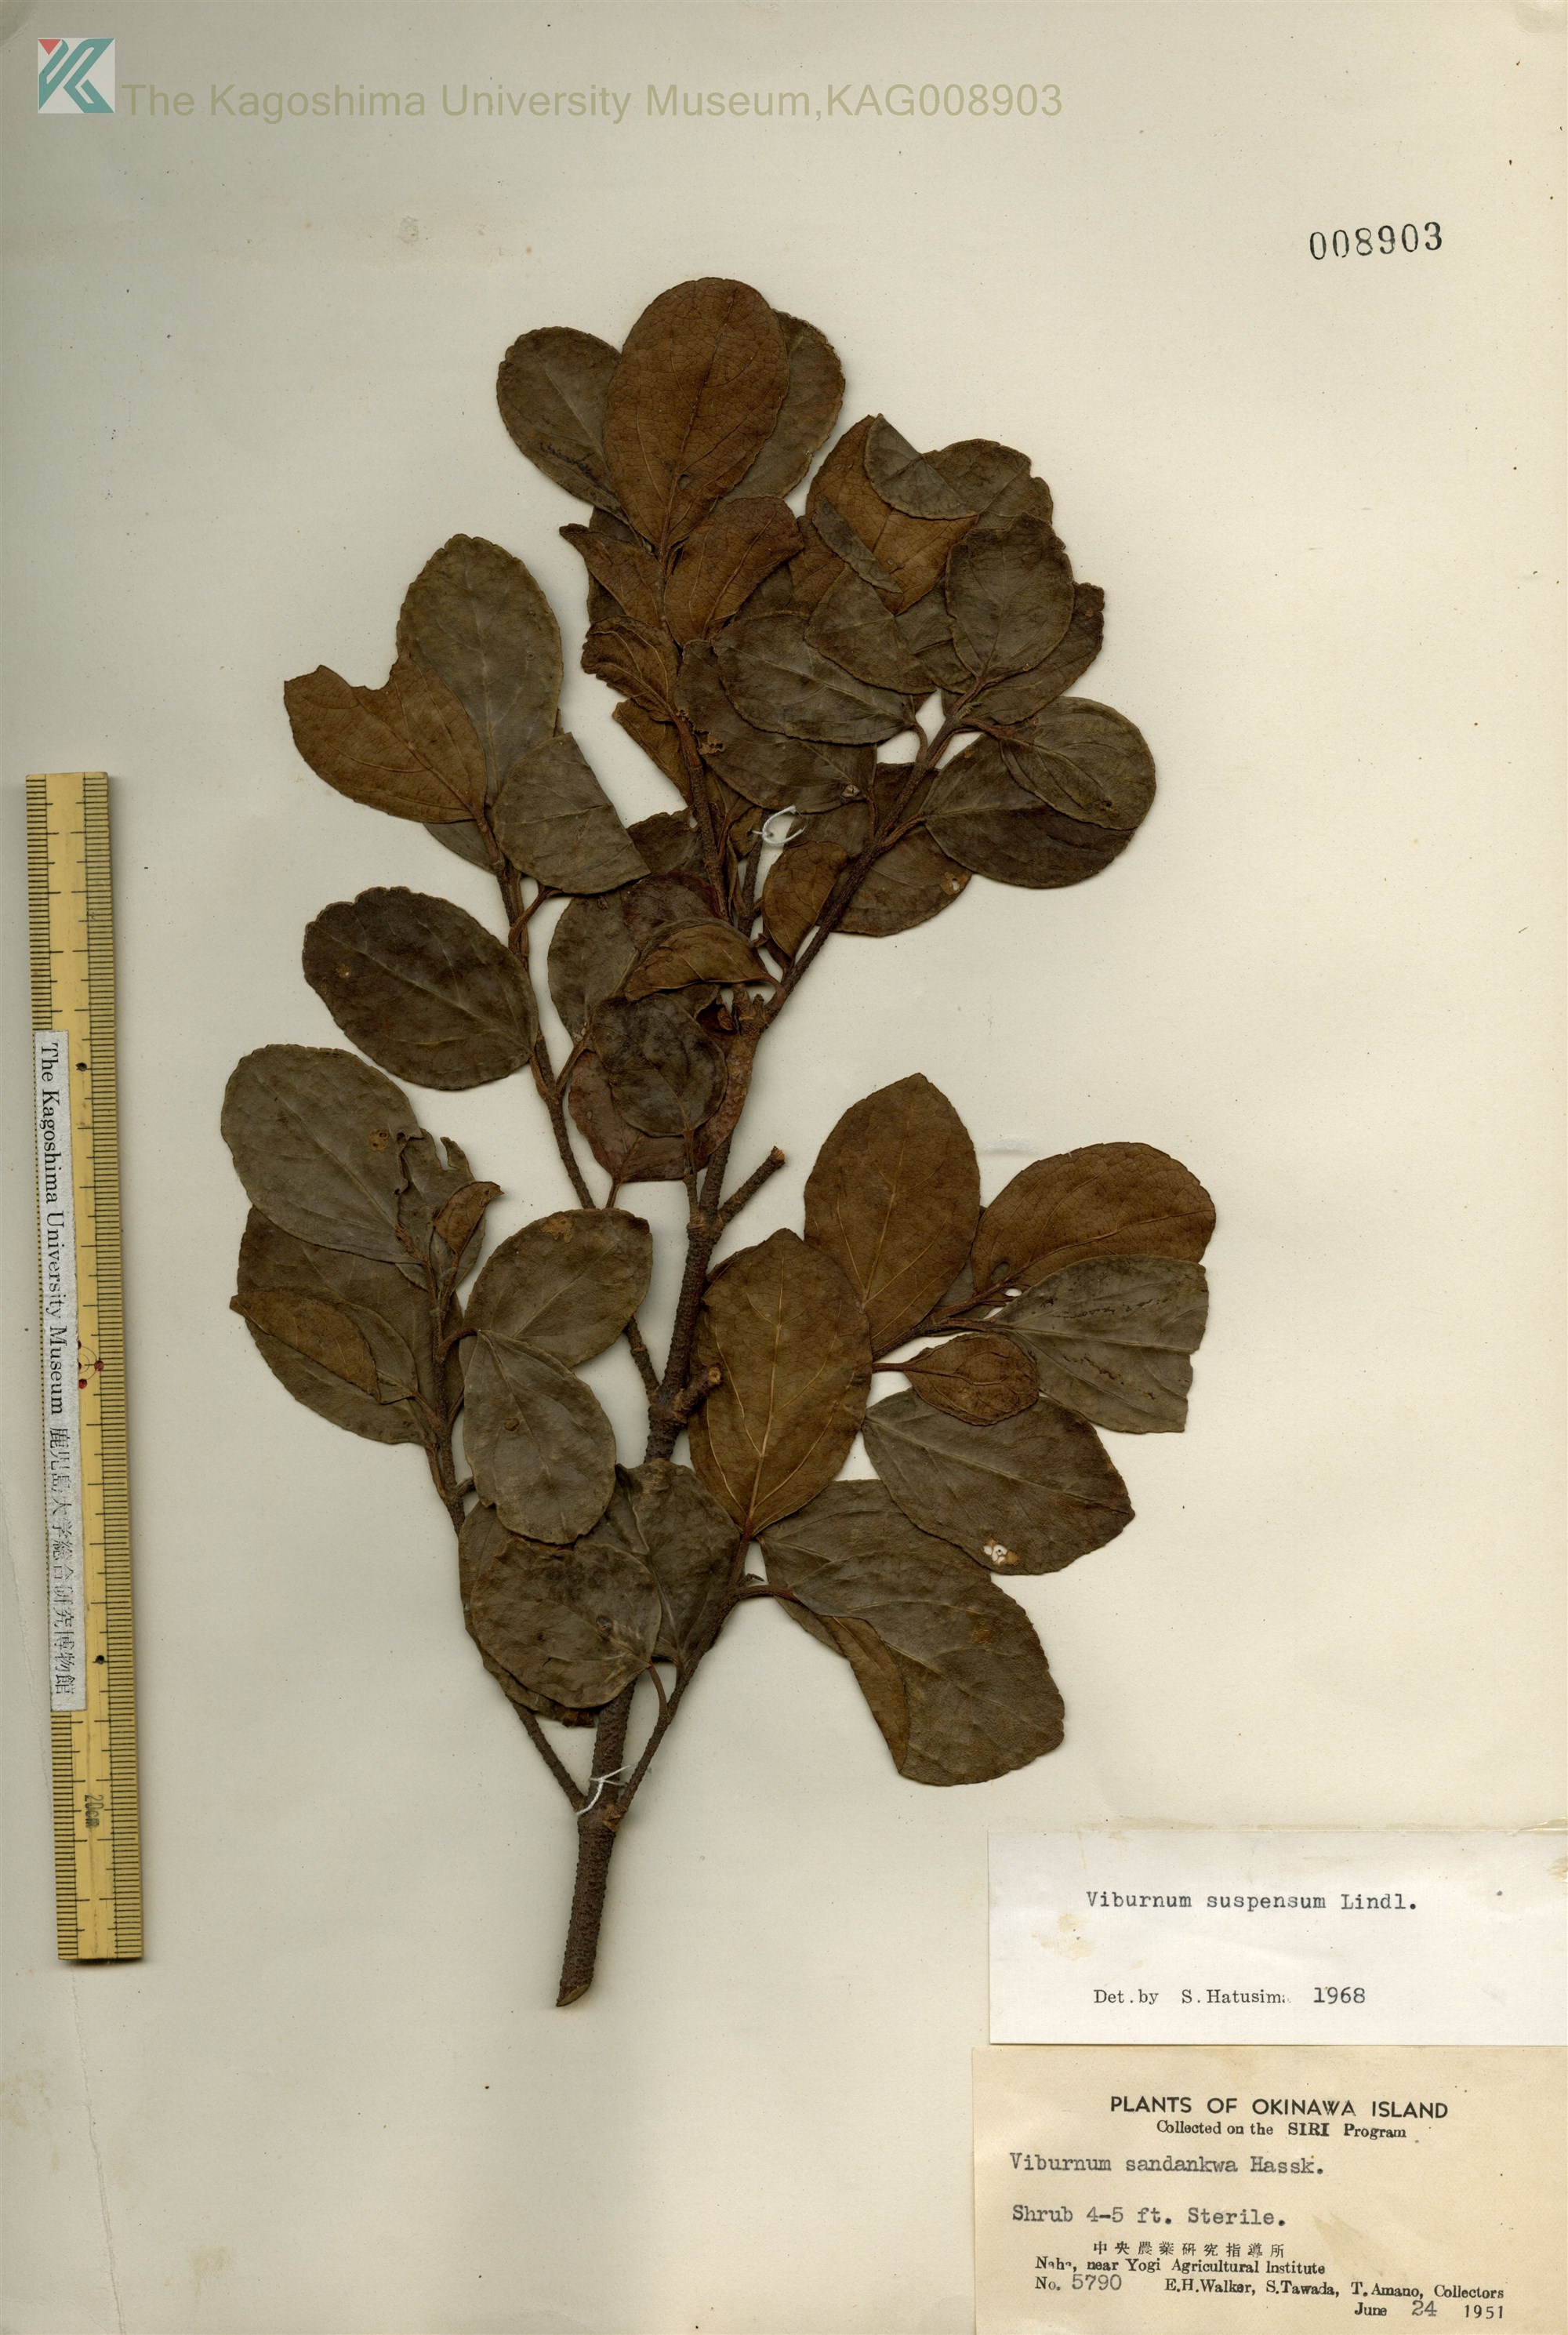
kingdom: Plantae
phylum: Tracheophyta
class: Magnoliopsida
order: Dipsacales
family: Viburnaceae
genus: Viburnum
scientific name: Viburnum suspensum
